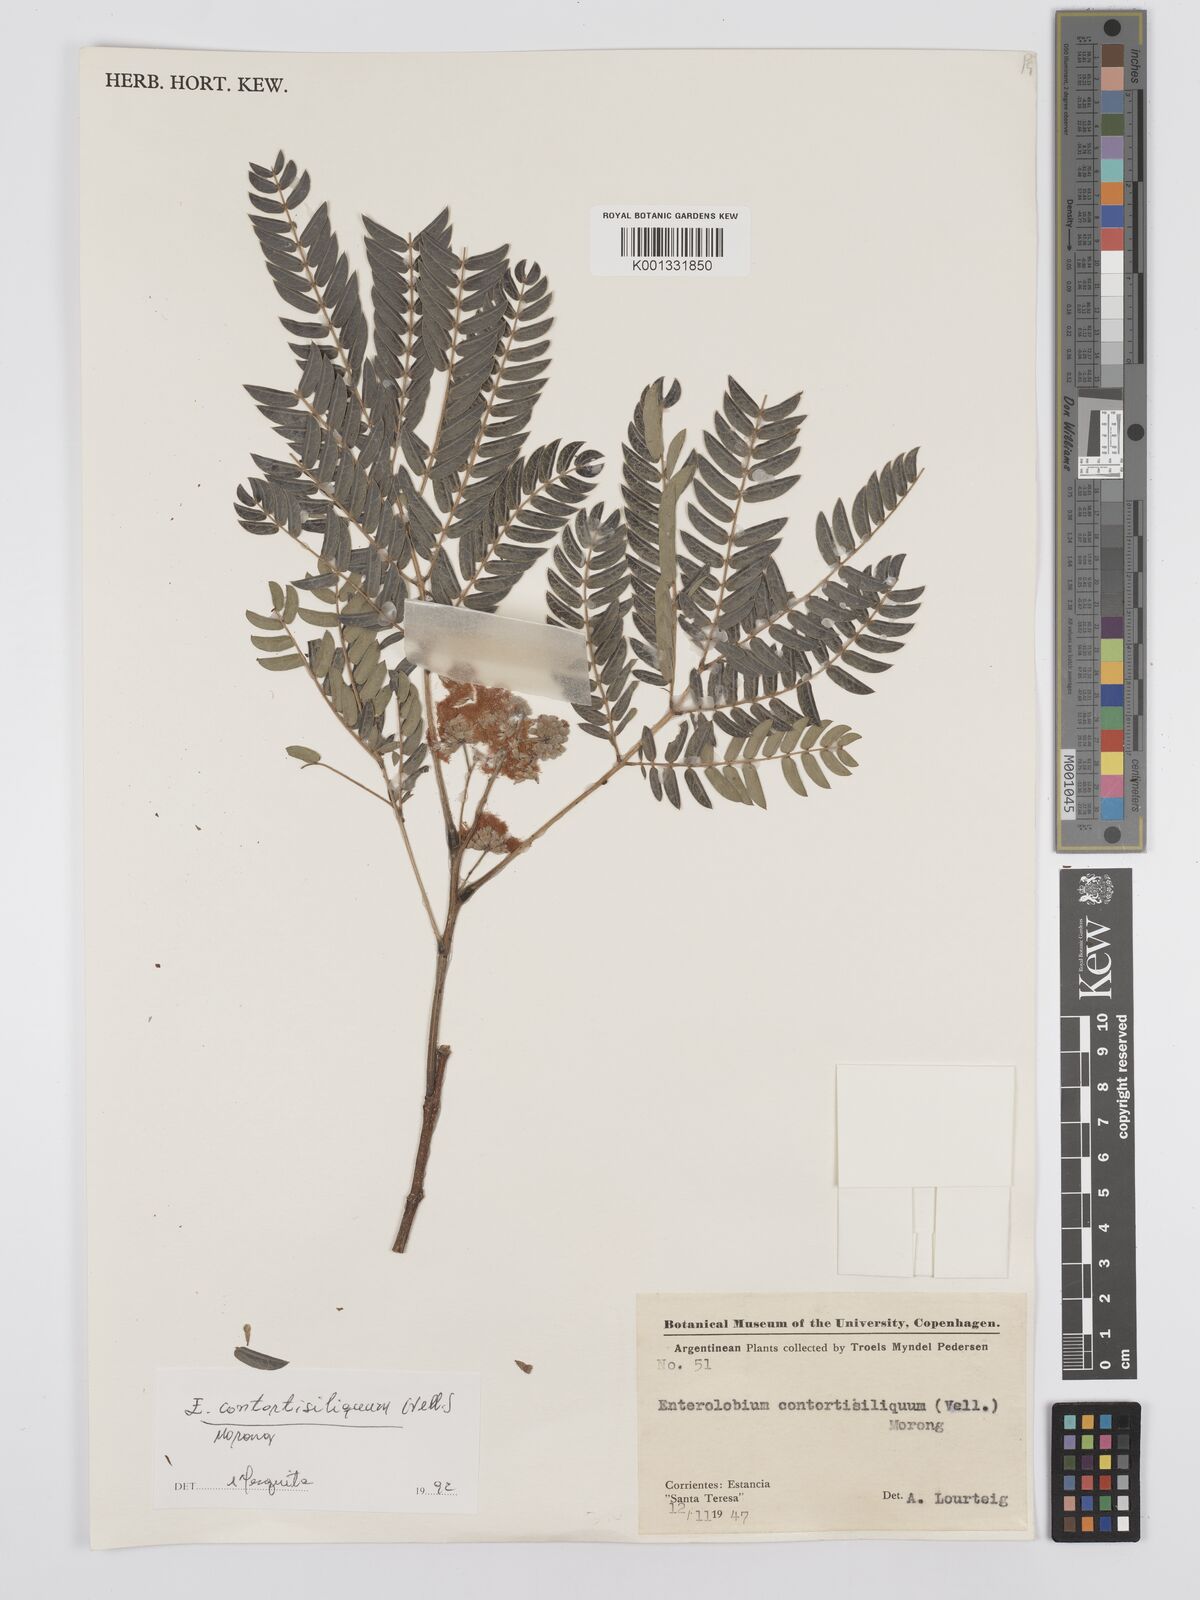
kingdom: Plantae
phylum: Tracheophyta
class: Magnoliopsida
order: Fabales
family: Fabaceae
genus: Enterolobium
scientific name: Enterolobium contortisiliquum
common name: Pacara earpod tree
